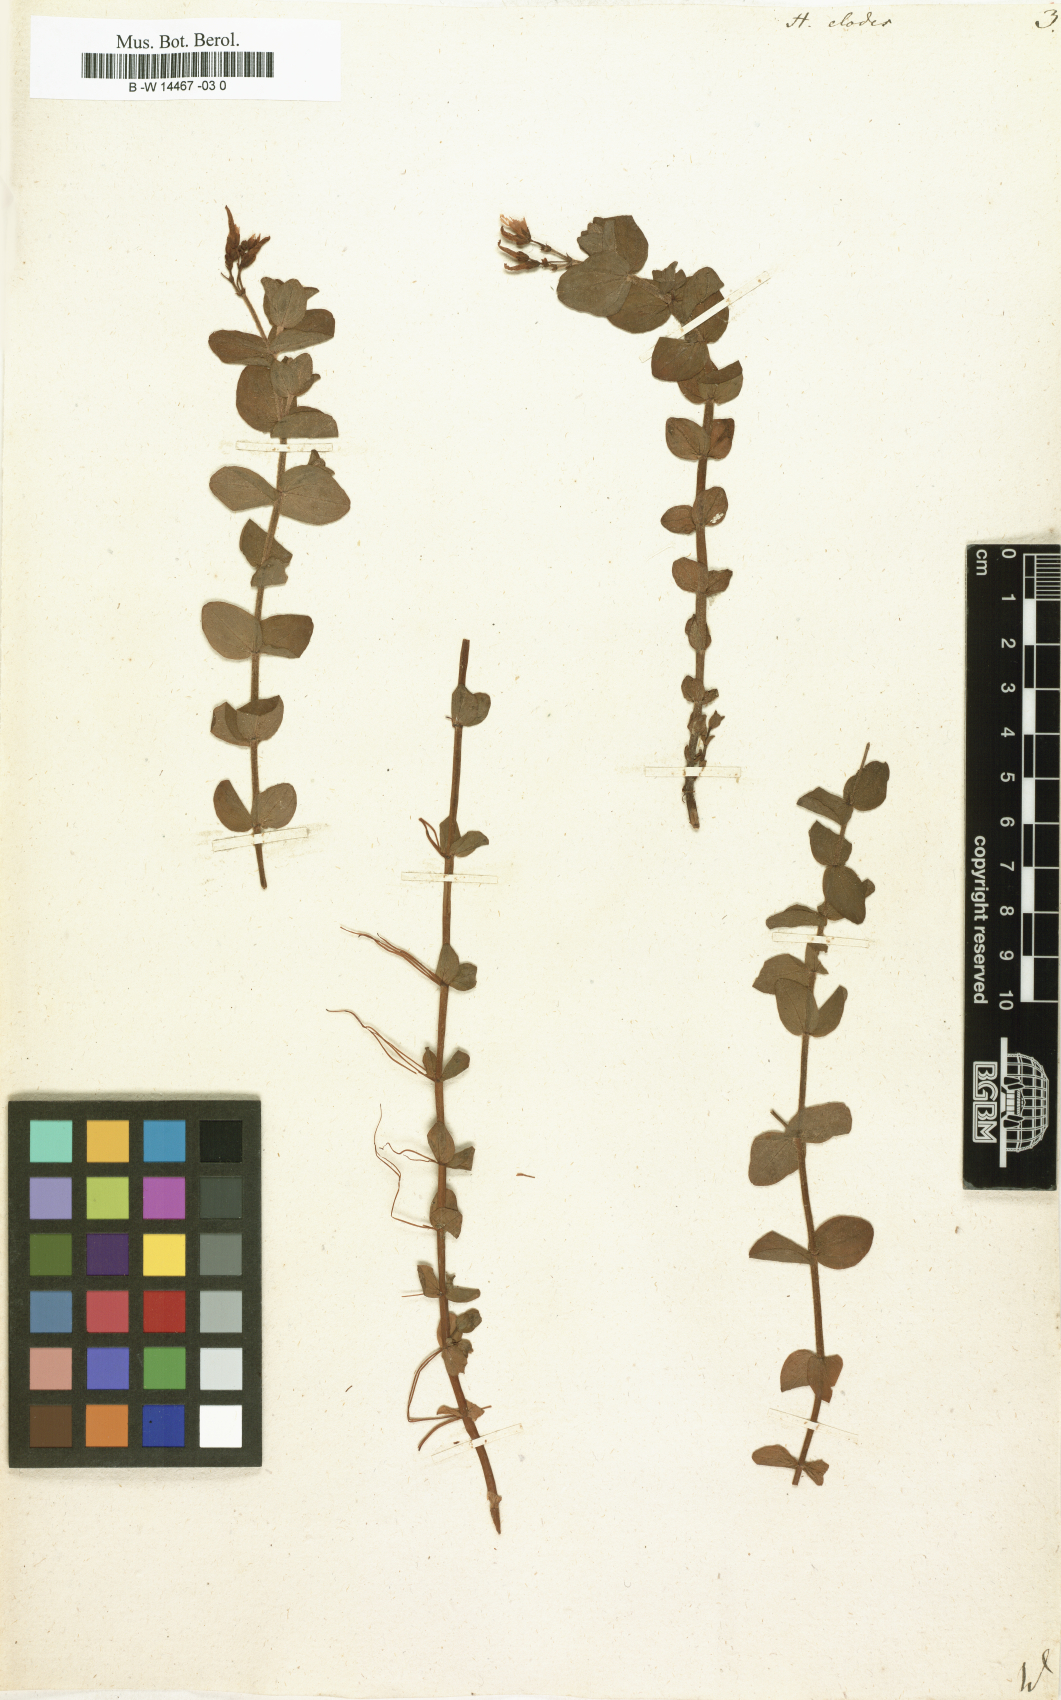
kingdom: Plantae
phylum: Tracheophyta
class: Magnoliopsida
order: Malpighiales
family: Hypericaceae
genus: Hypericum
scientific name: Hypericum elodes
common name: Marsh st. john's-wort
